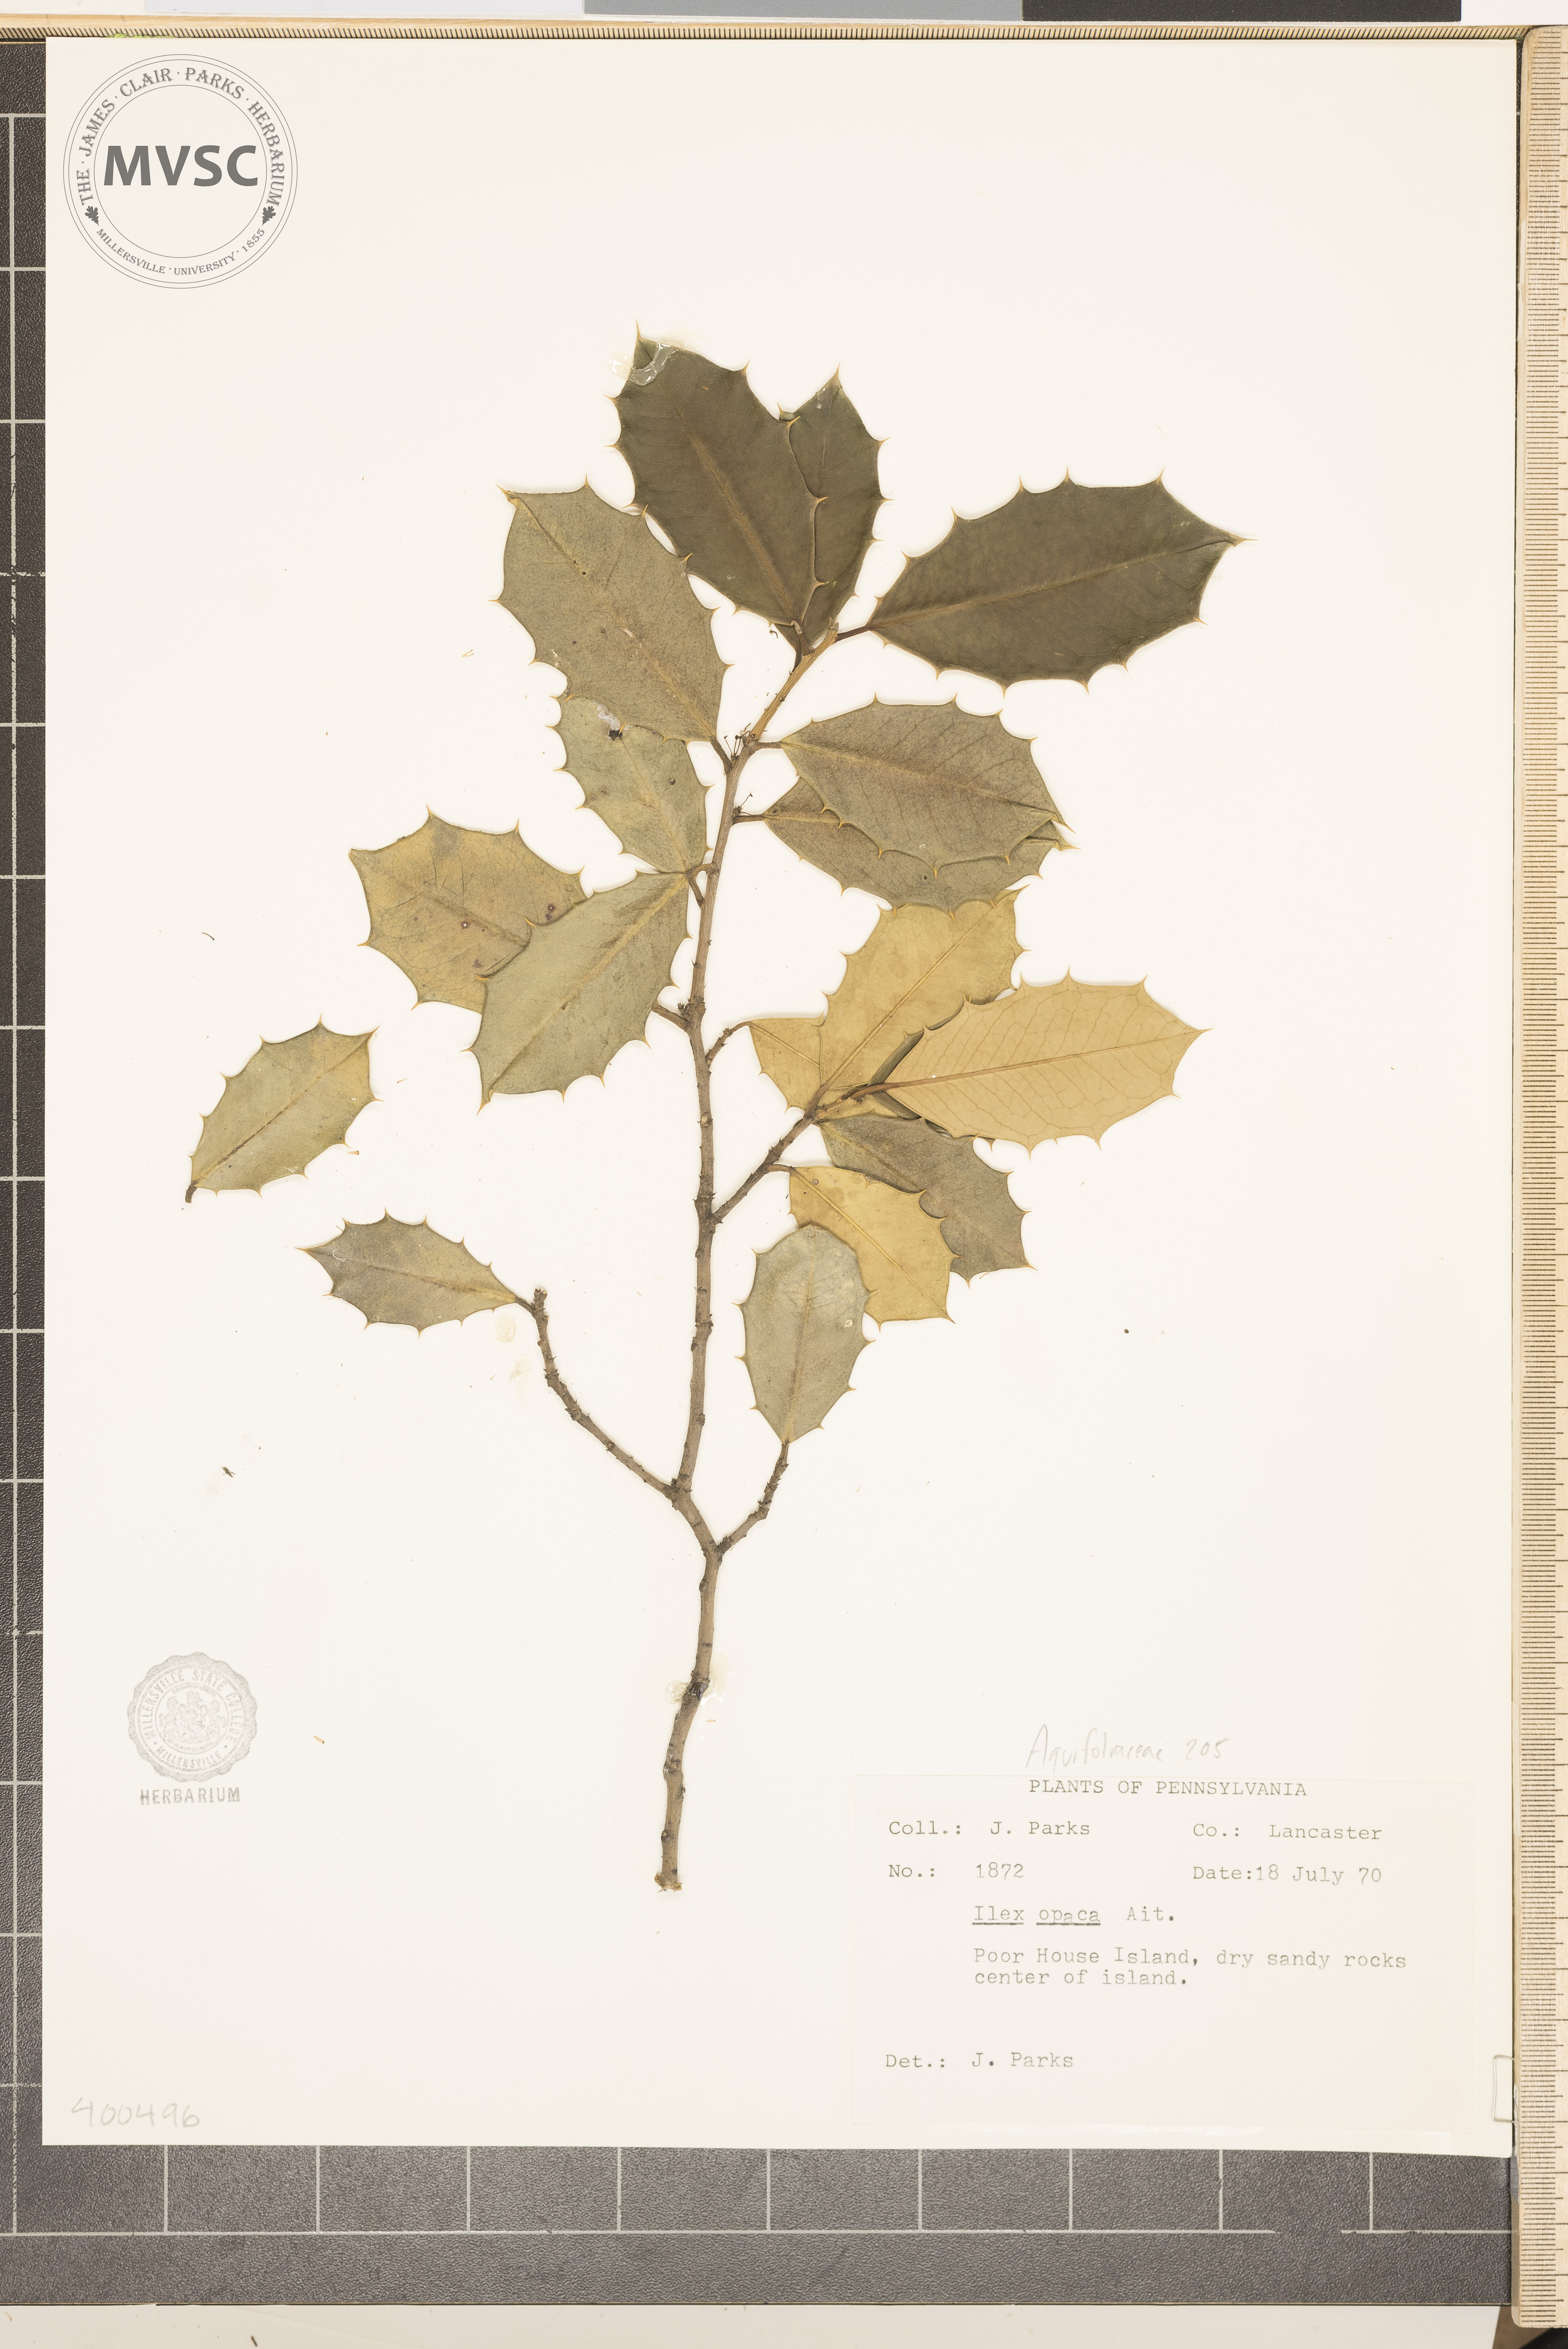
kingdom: Plantae
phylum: Tracheophyta
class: Magnoliopsida
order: Aquifoliales
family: Aquifoliaceae
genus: Ilex
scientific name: Ilex opaca
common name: American holly
